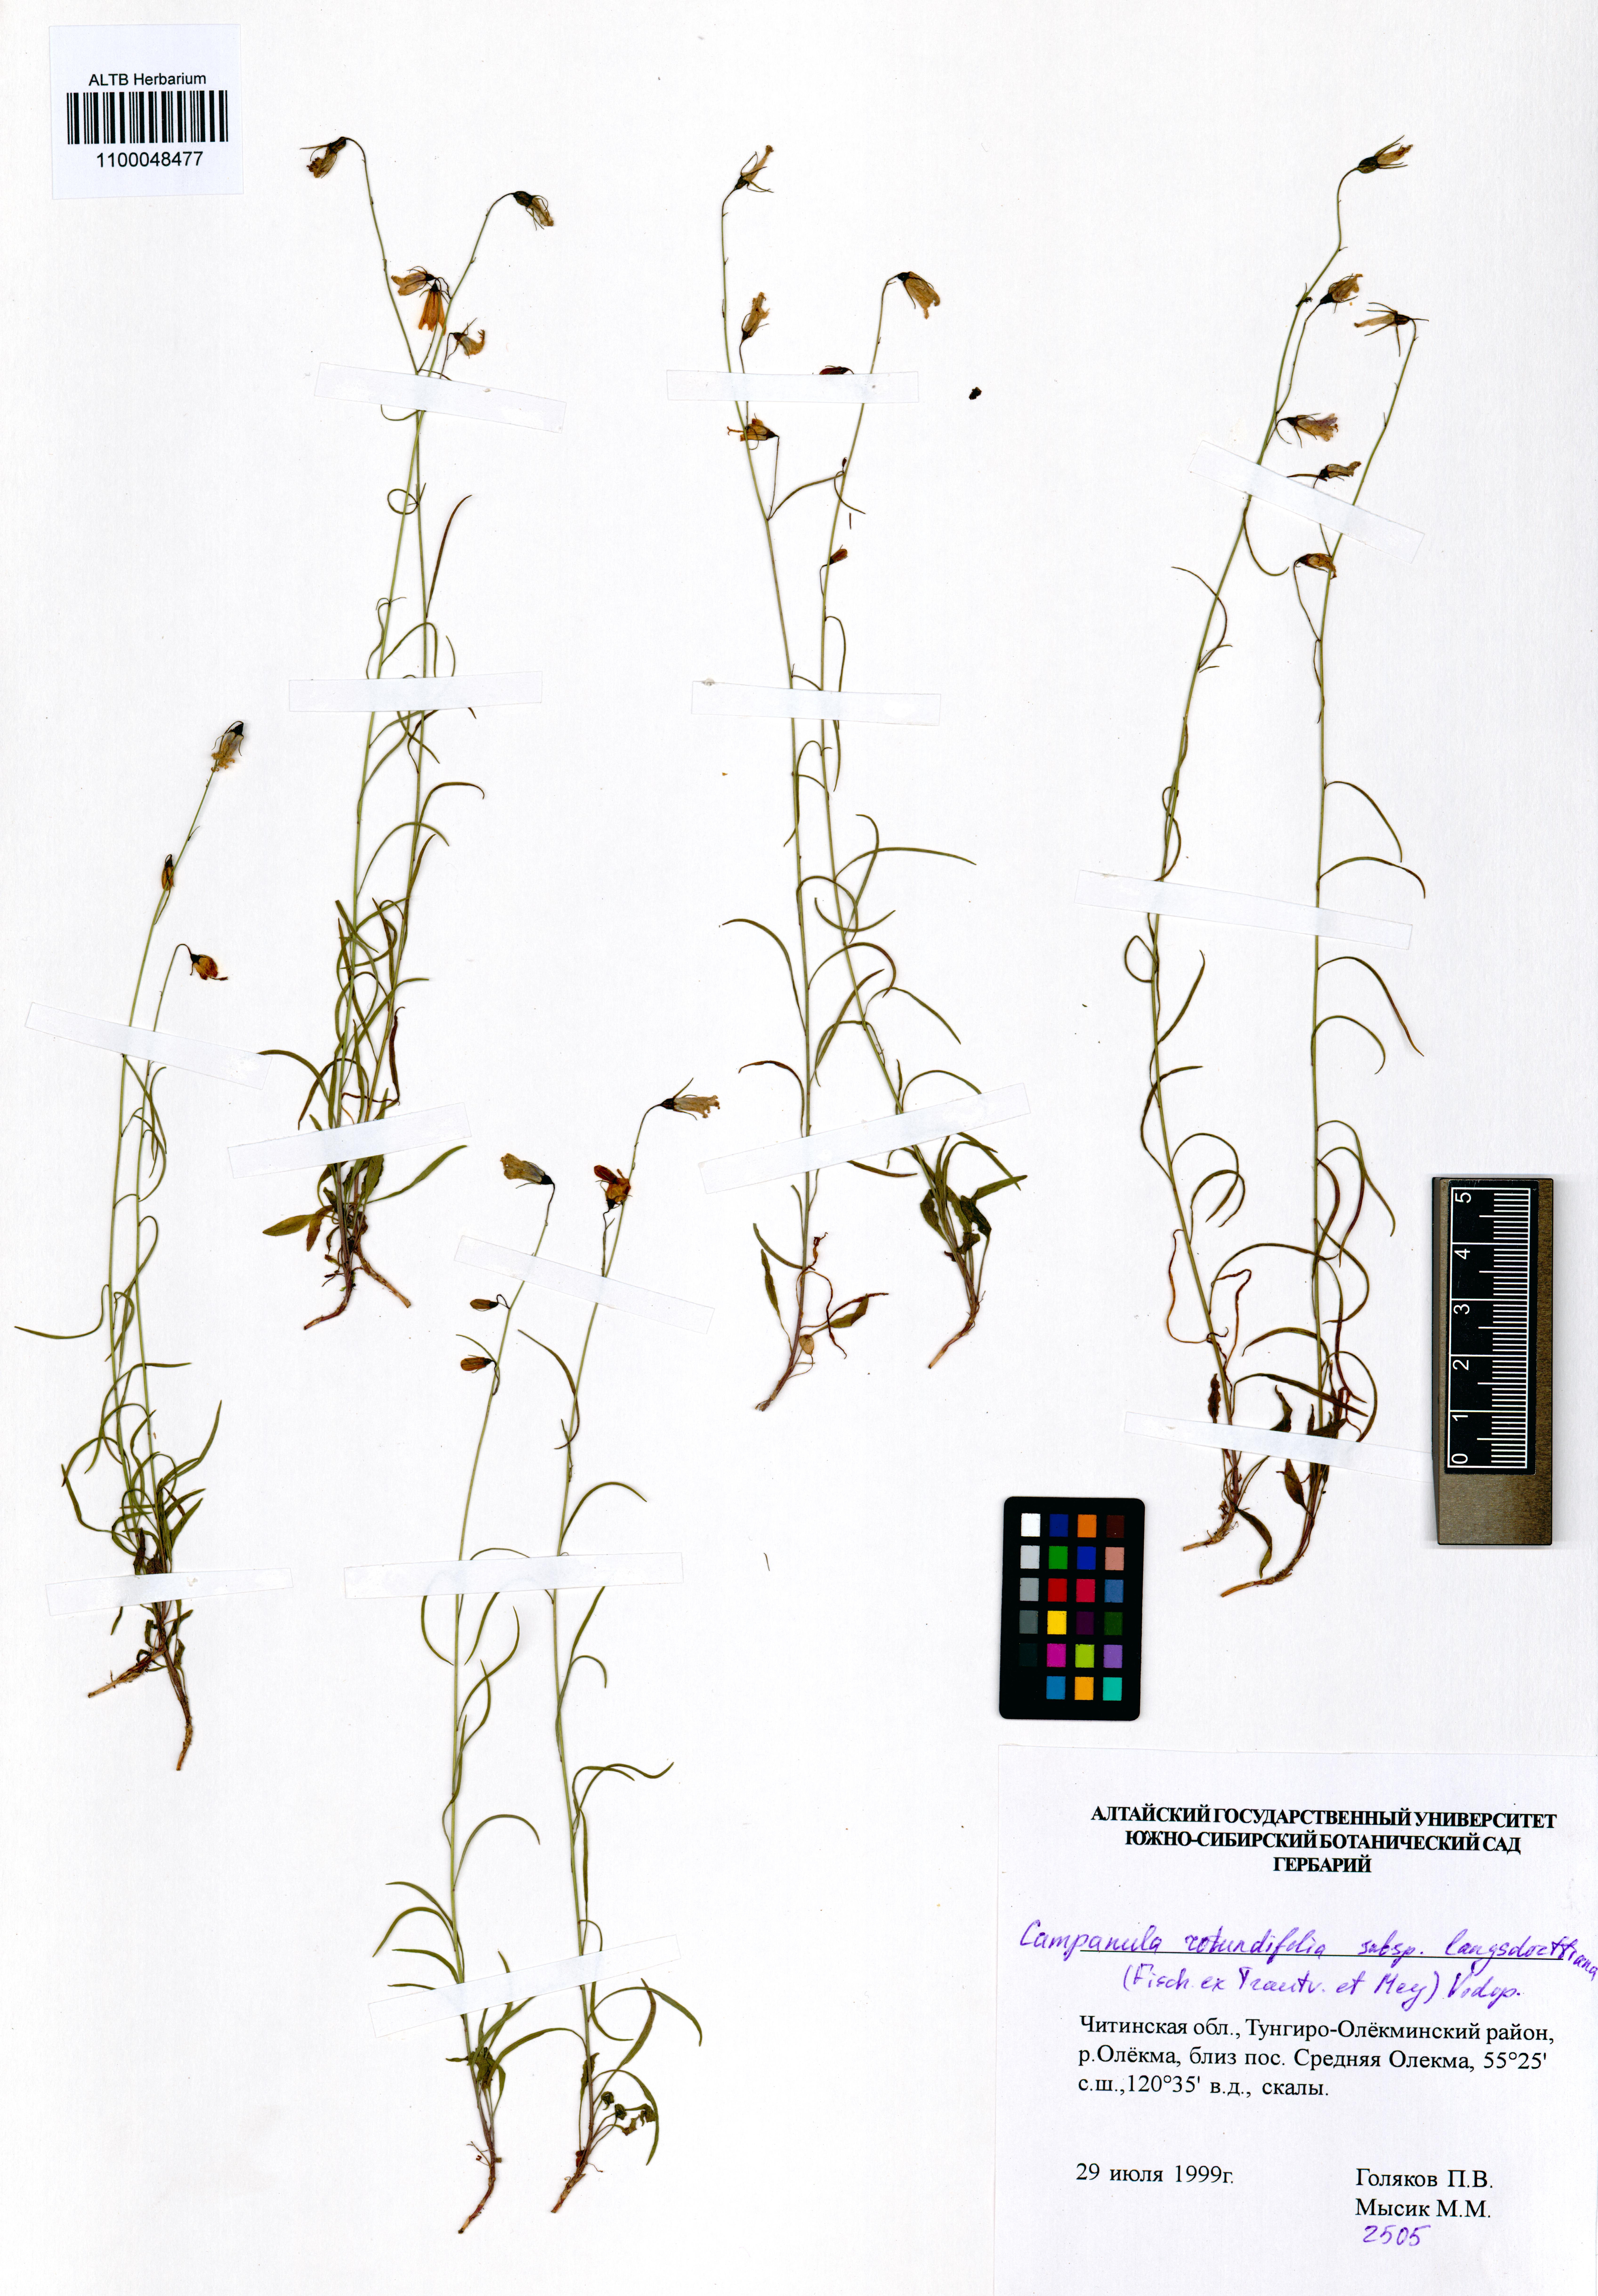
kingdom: Plantae
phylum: Tracheophyta
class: Magnoliopsida
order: Asterales
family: Campanulaceae
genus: Campanula
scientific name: Campanula rotundifolia
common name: Harebell
